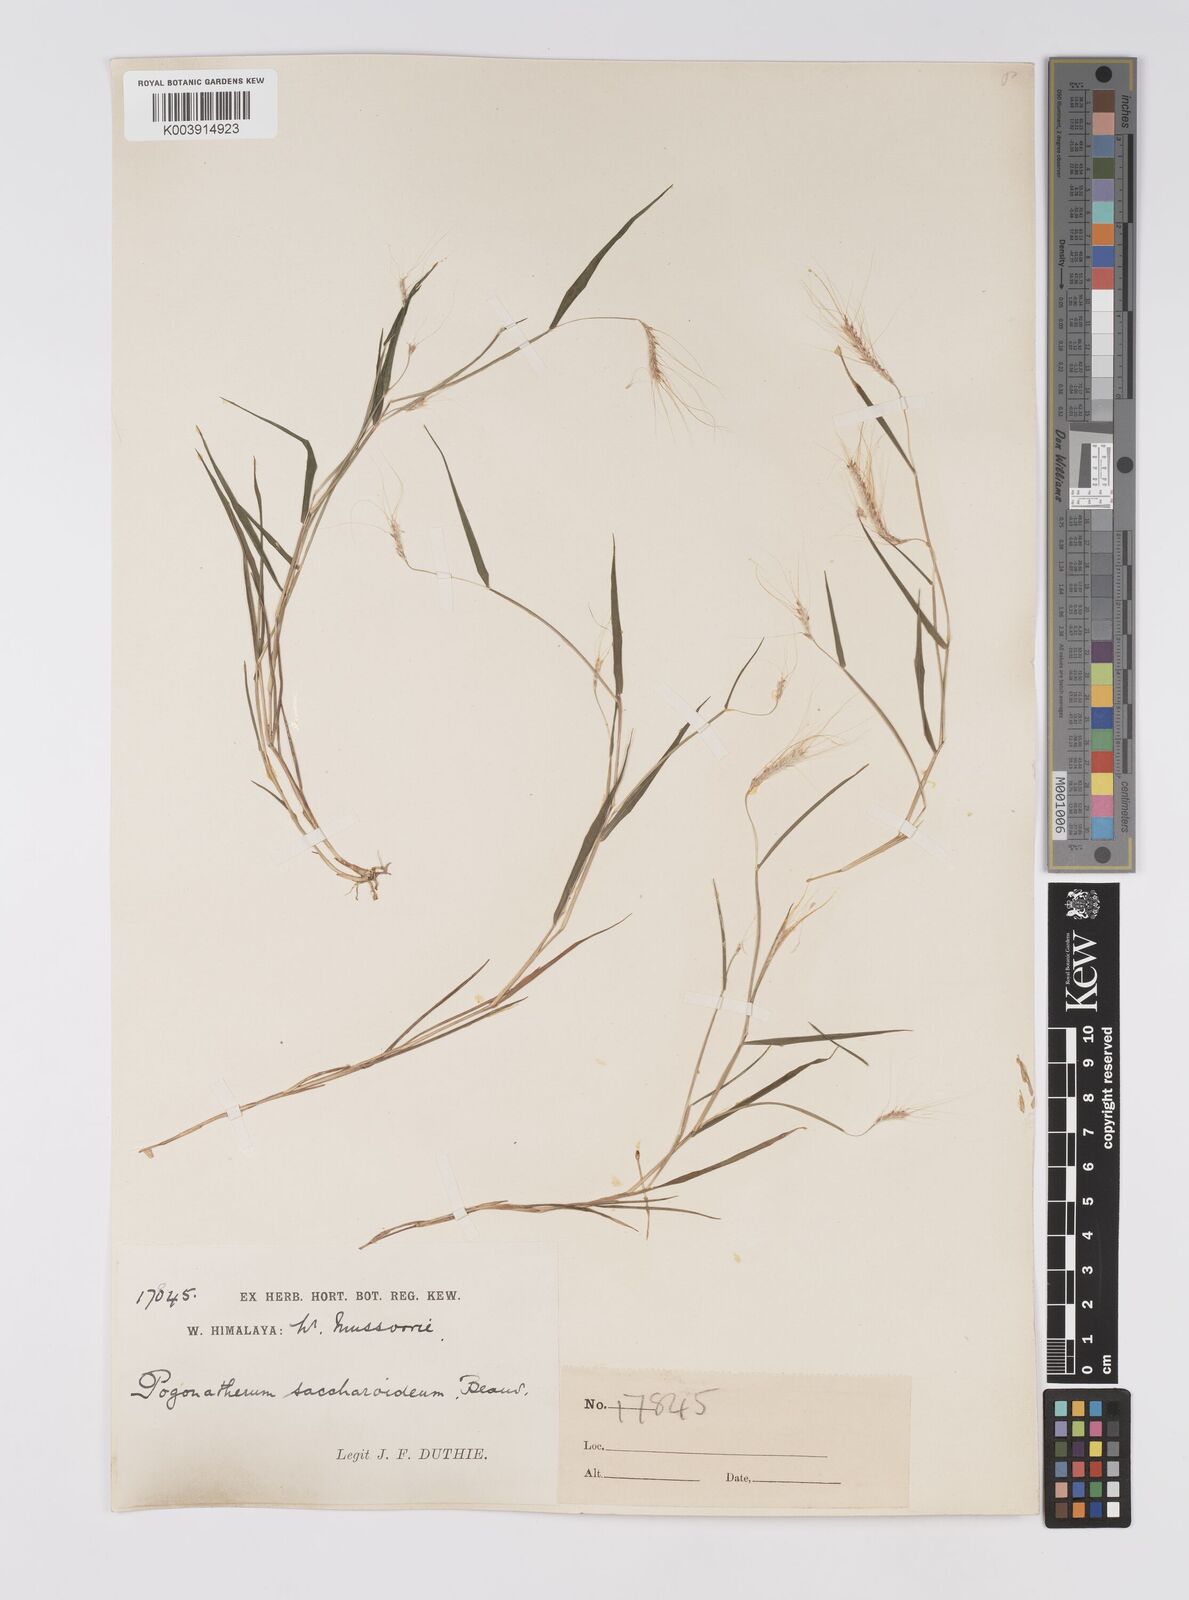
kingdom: Plantae
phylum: Tracheophyta
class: Liliopsida
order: Poales
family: Poaceae
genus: Pogonatherum
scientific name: Pogonatherum paniceum
